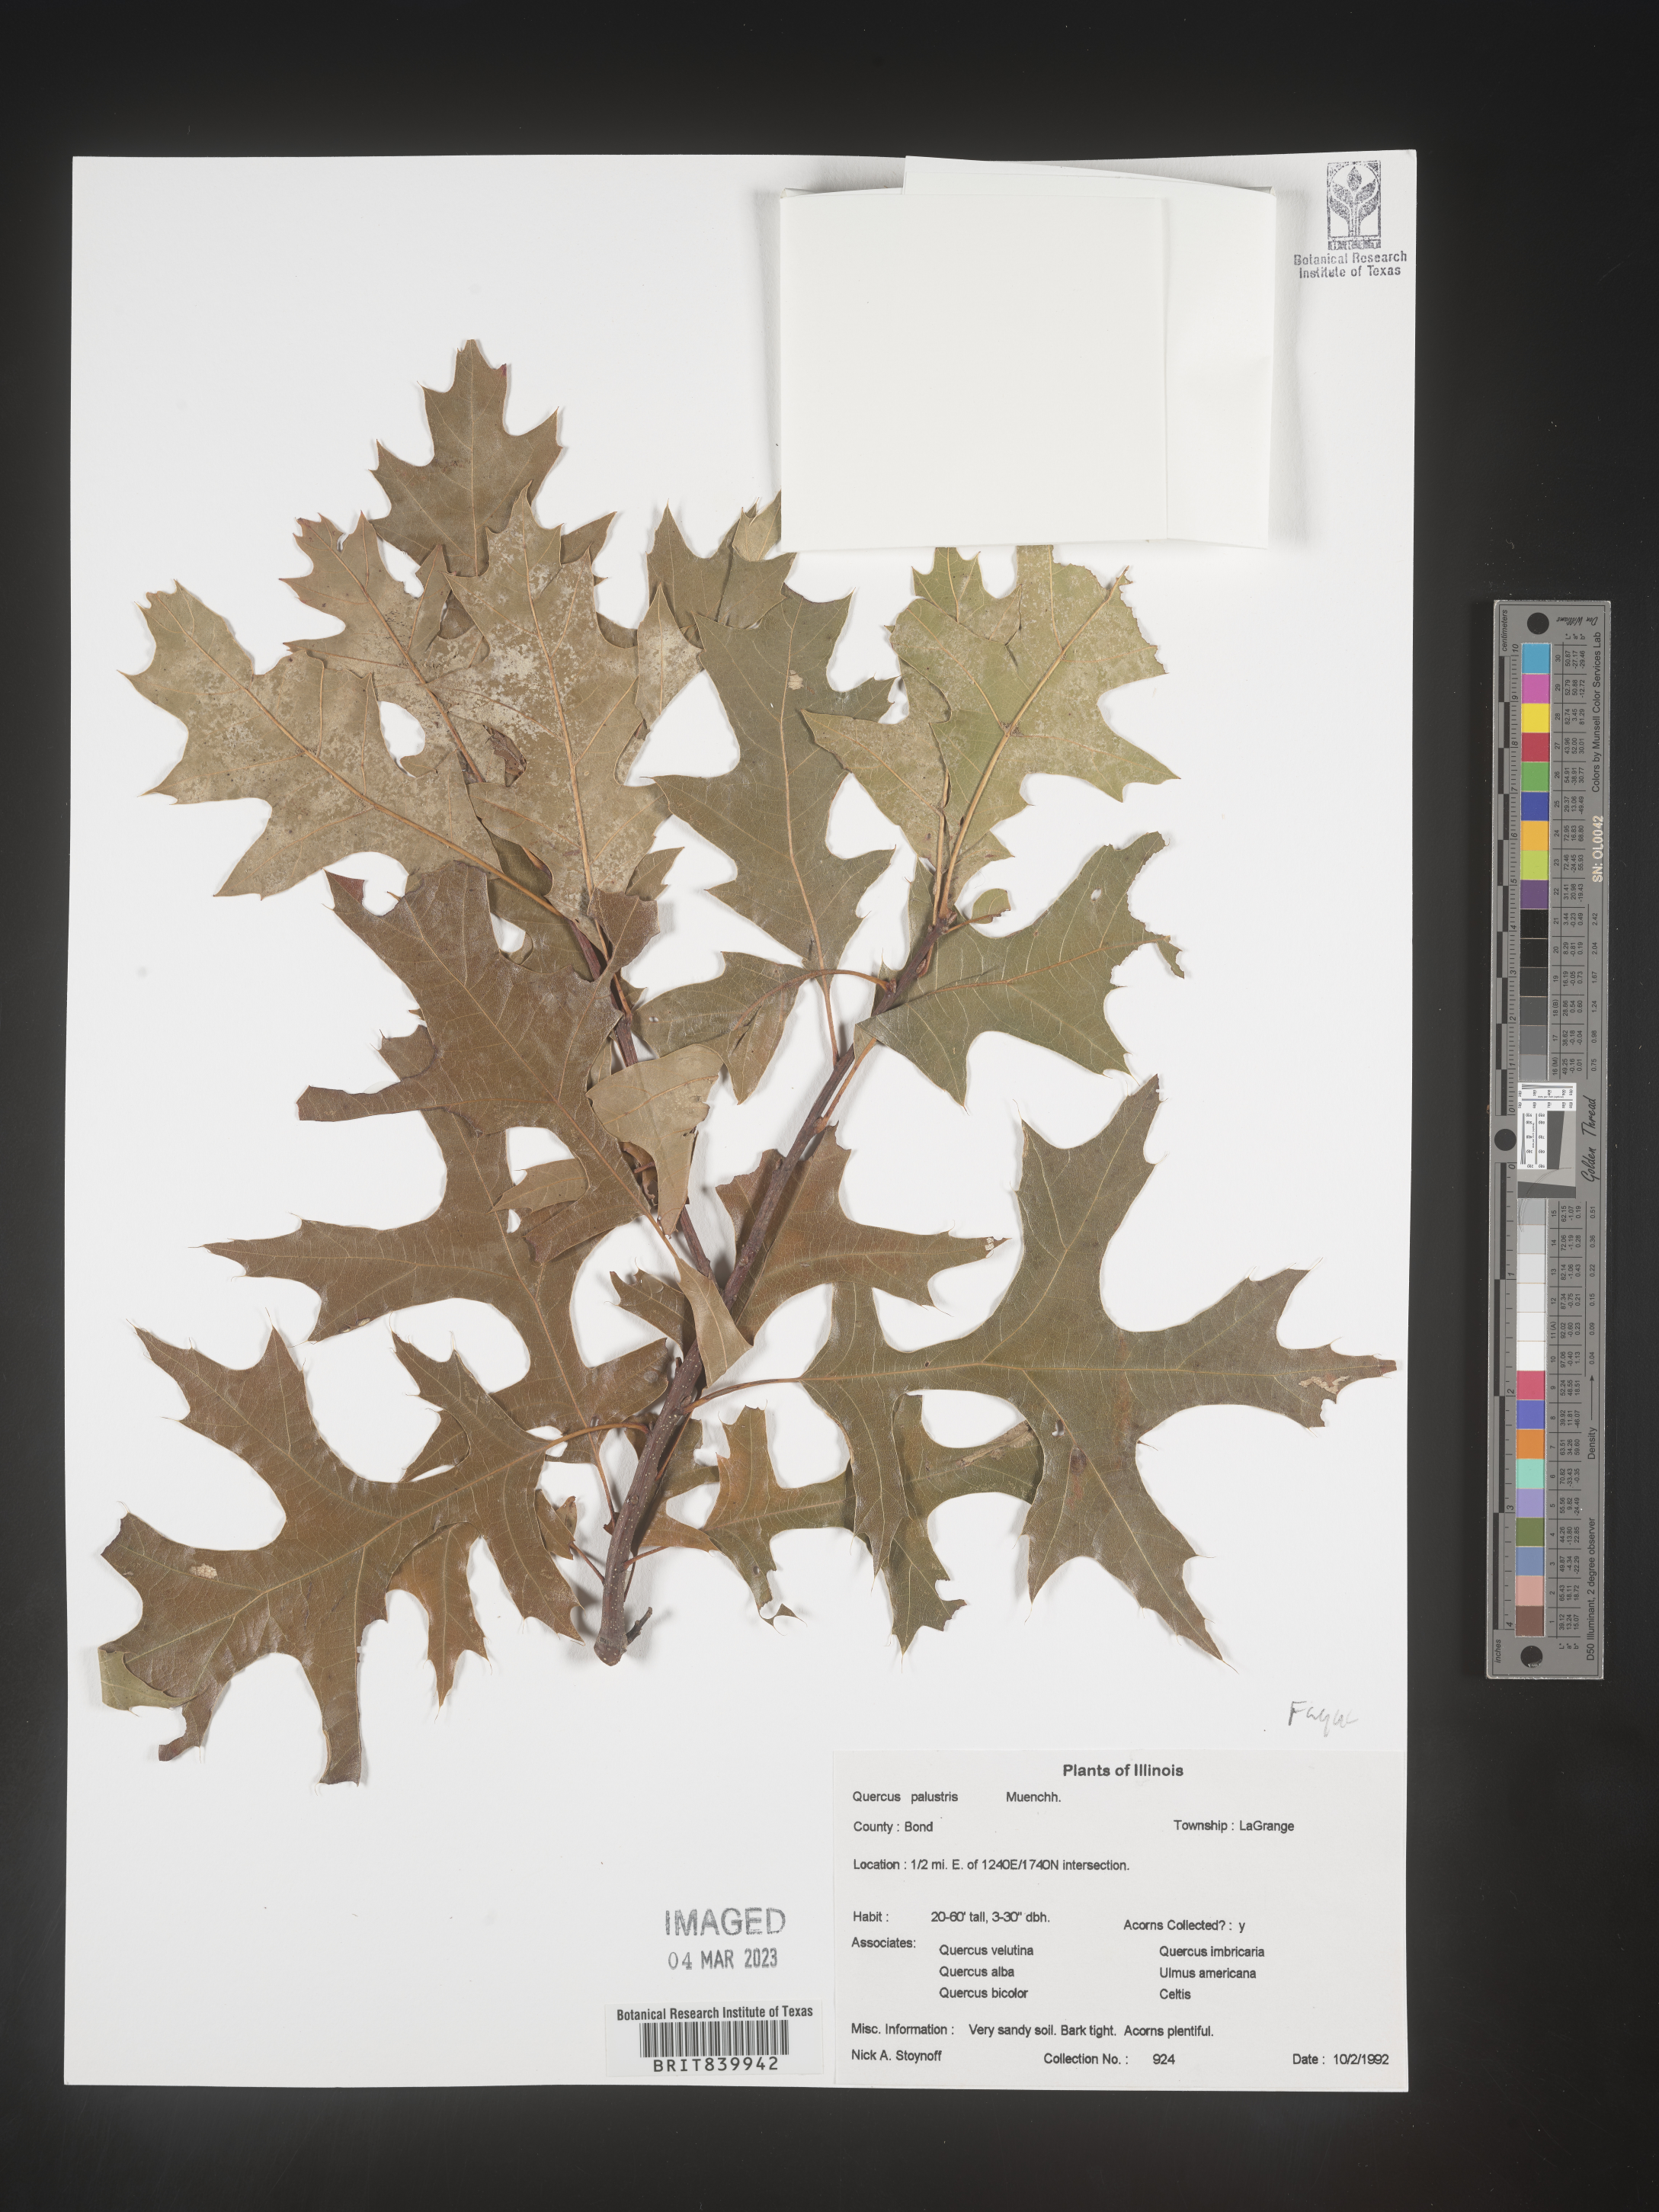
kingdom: Plantae
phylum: Tracheophyta
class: Magnoliopsida
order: Fagales
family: Fagaceae
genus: Quercus
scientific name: Quercus palustris
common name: Pin oak
